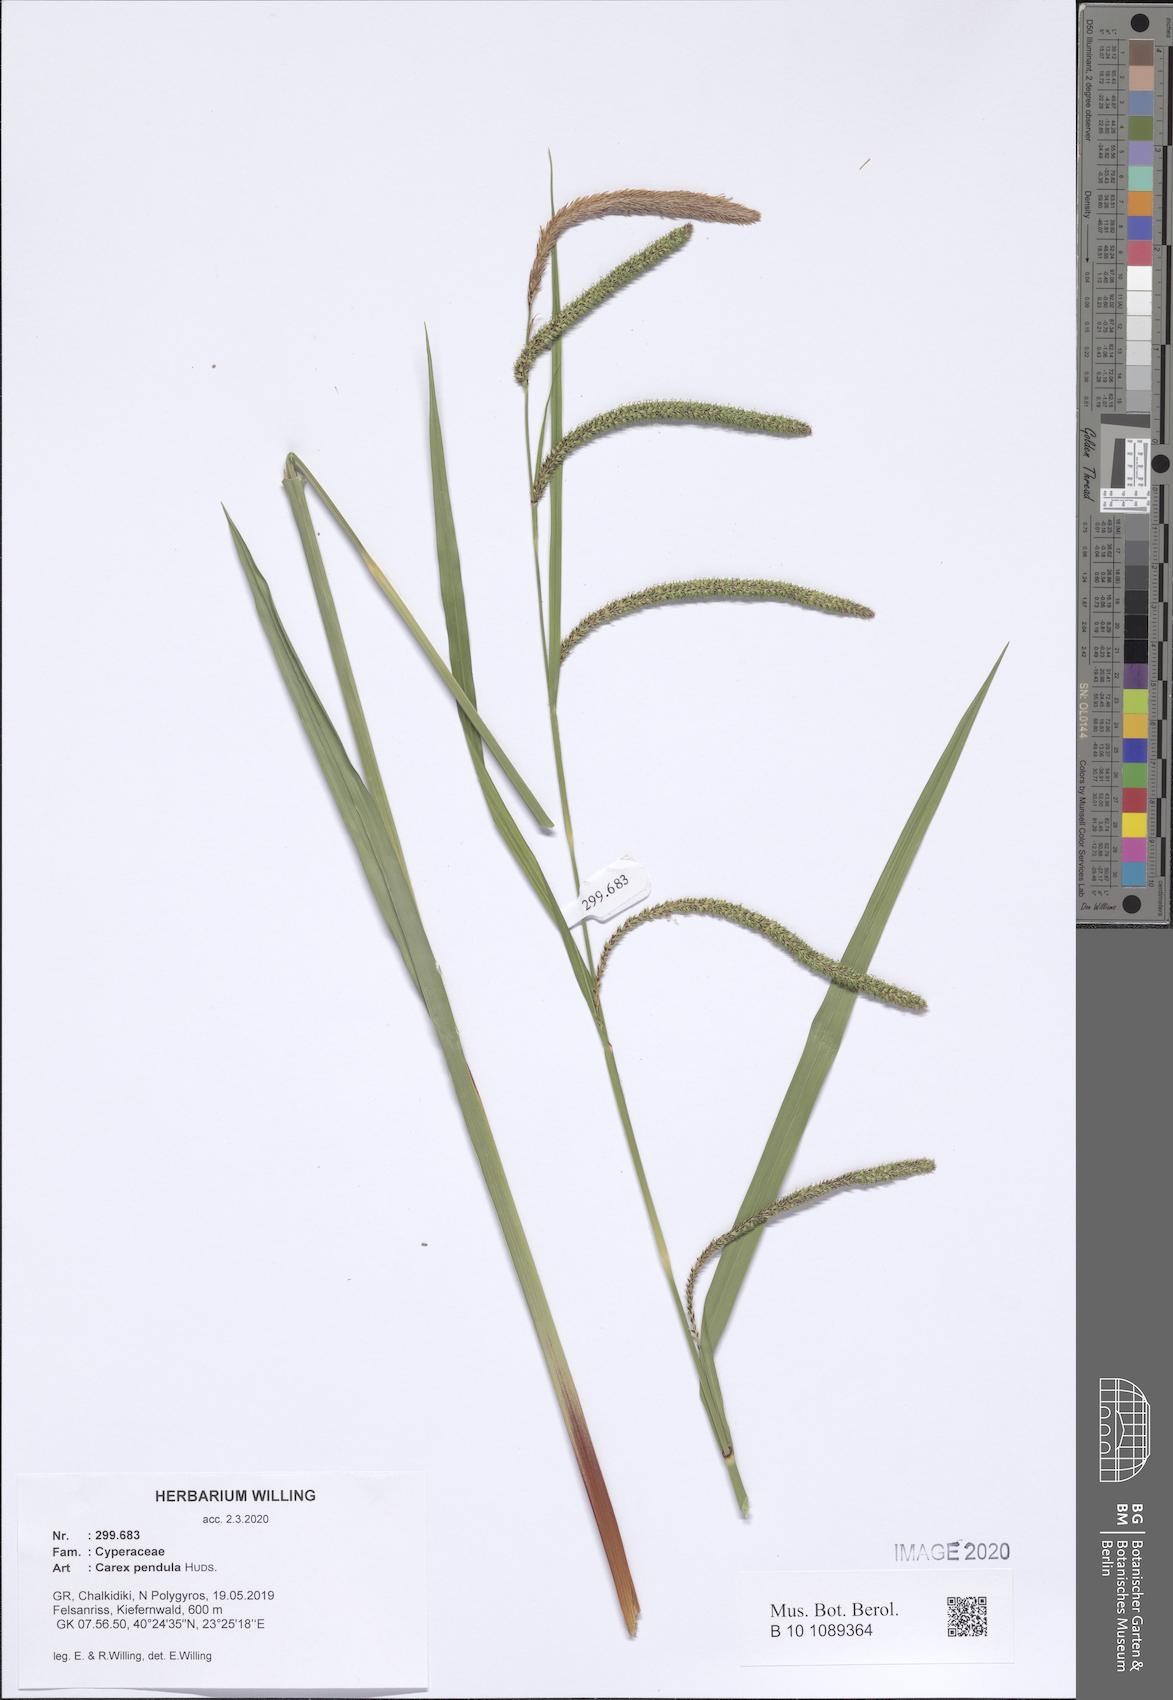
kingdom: Plantae
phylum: Tracheophyta
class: Liliopsida
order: Poales
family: Cyperaceae
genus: Carex
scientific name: Carex pendula
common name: Pendulous sedge
